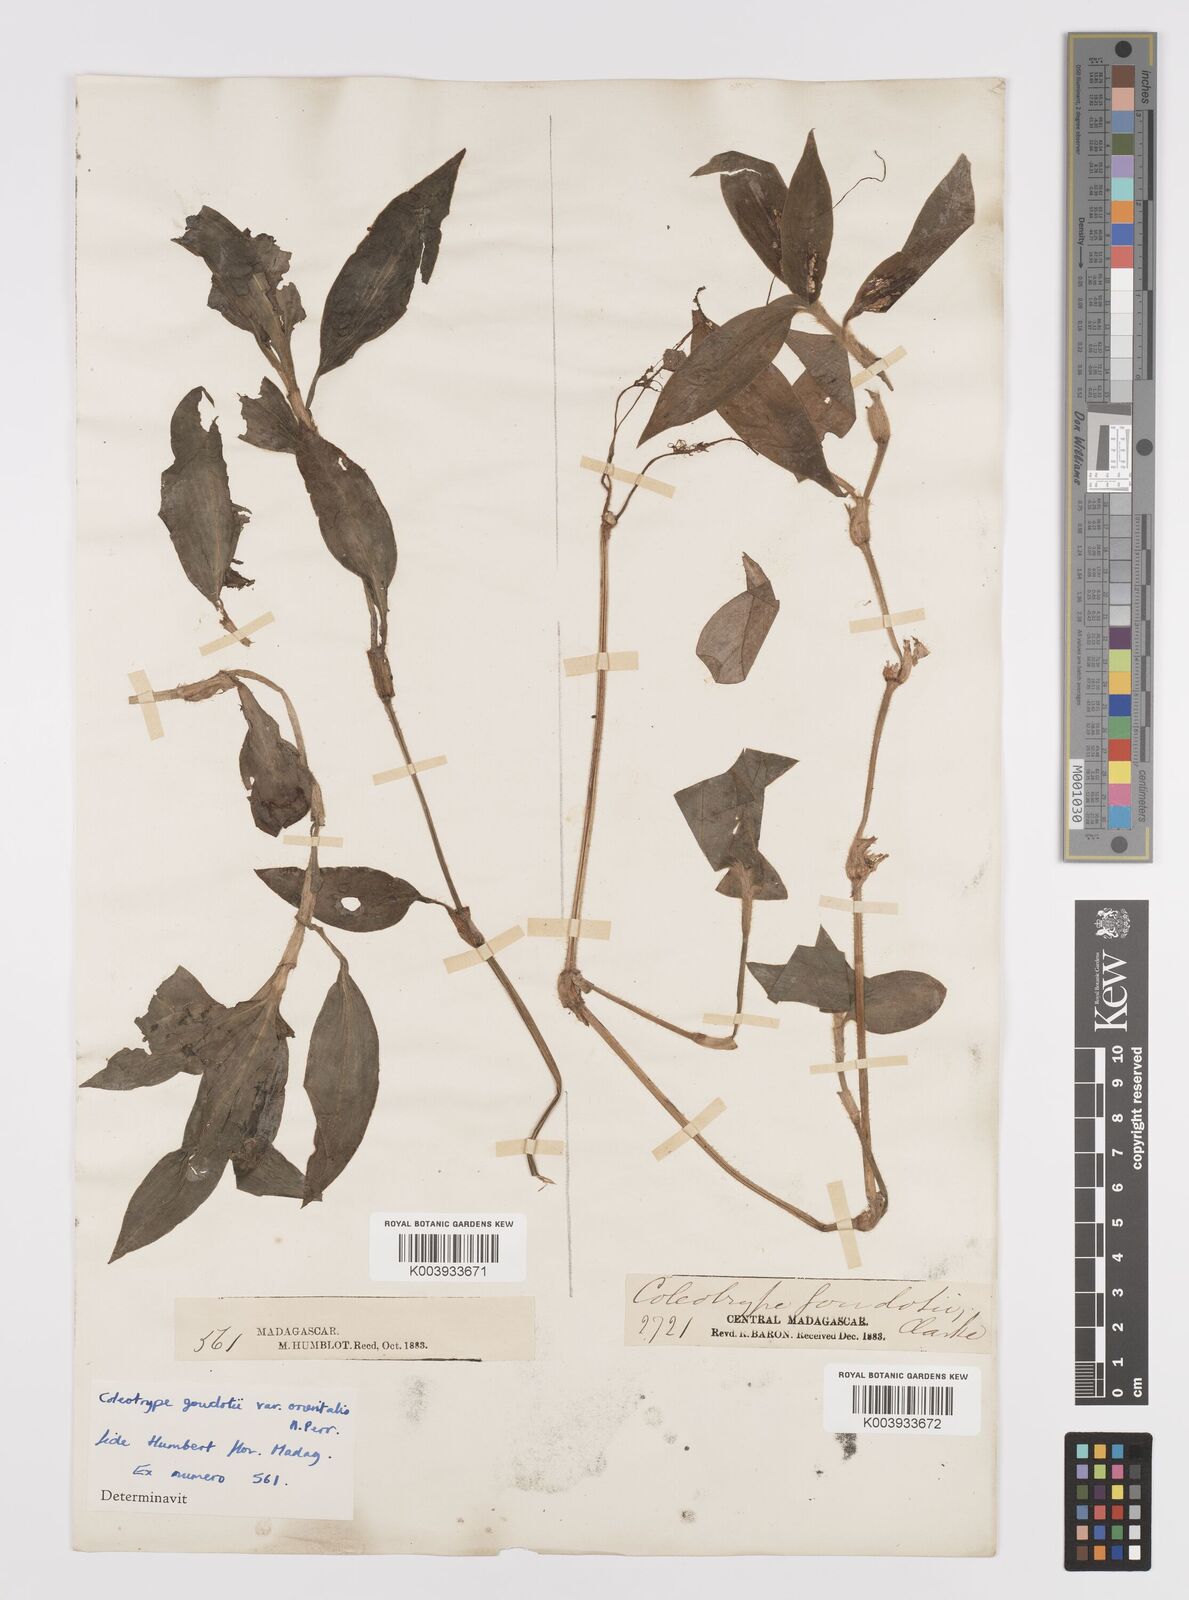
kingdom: Plantae
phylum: Tracheophyta
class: Liliopsida
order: Commelinales
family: Commelinaceae
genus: Coleotrype
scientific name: Coleotrype goudotii
